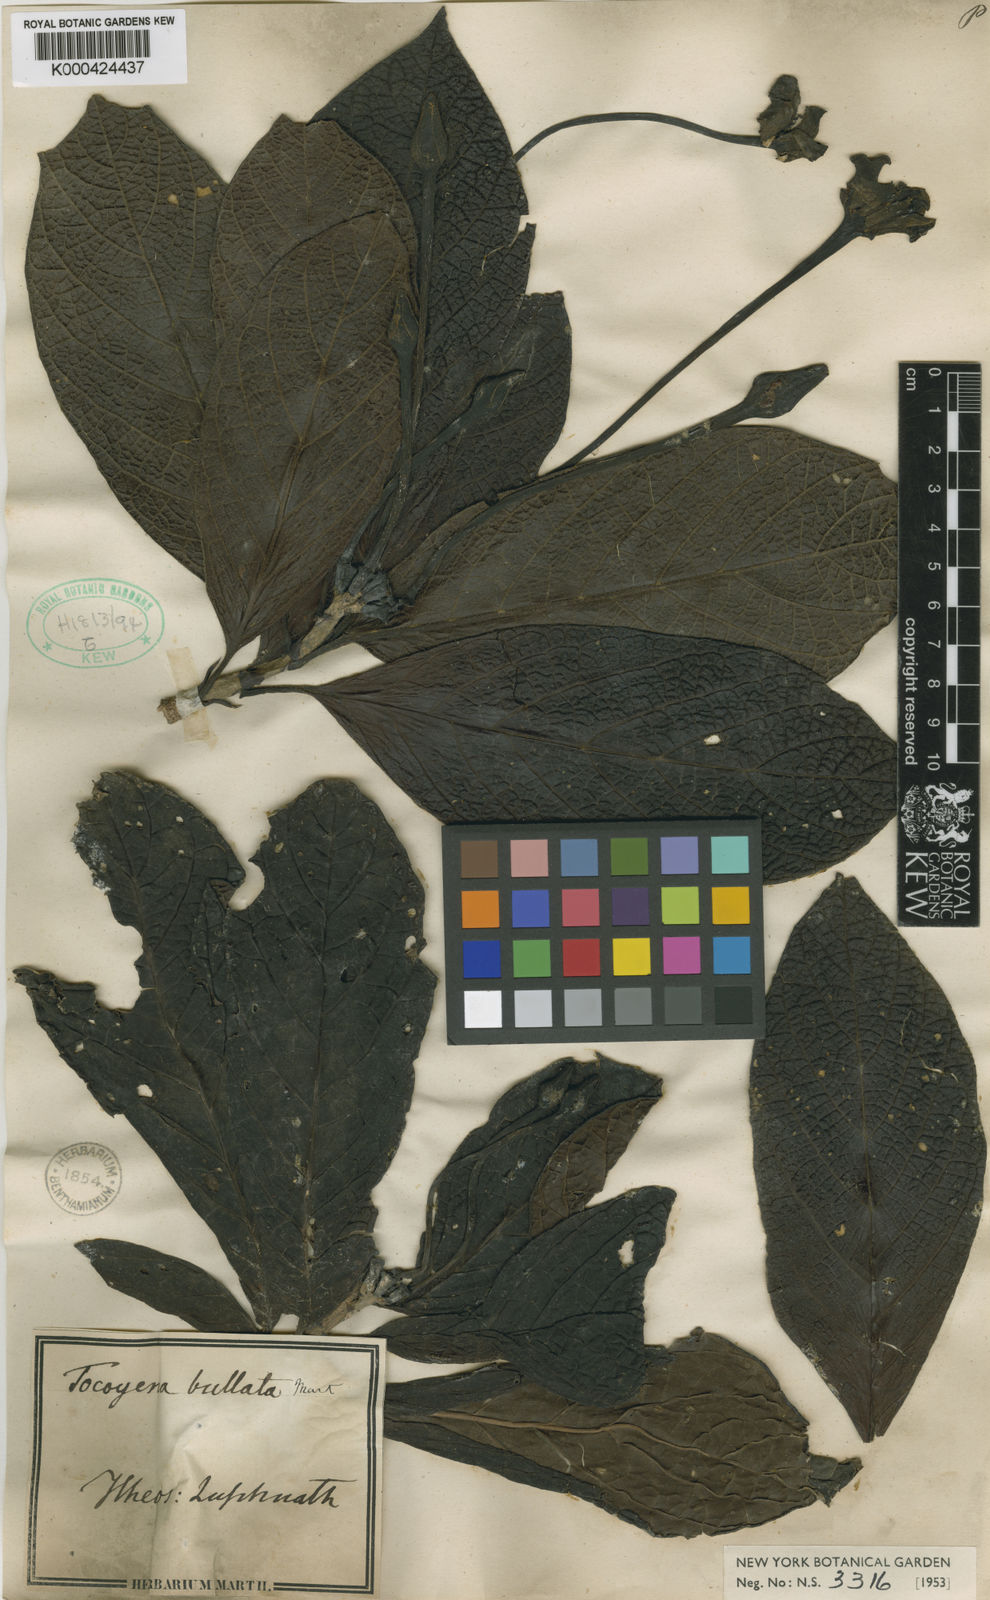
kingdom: Plantae
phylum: Tracheophyta
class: Magnoliopsida
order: Gentianales
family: Rubiaceae
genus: Tocoyena
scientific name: Tocoyena bullata
